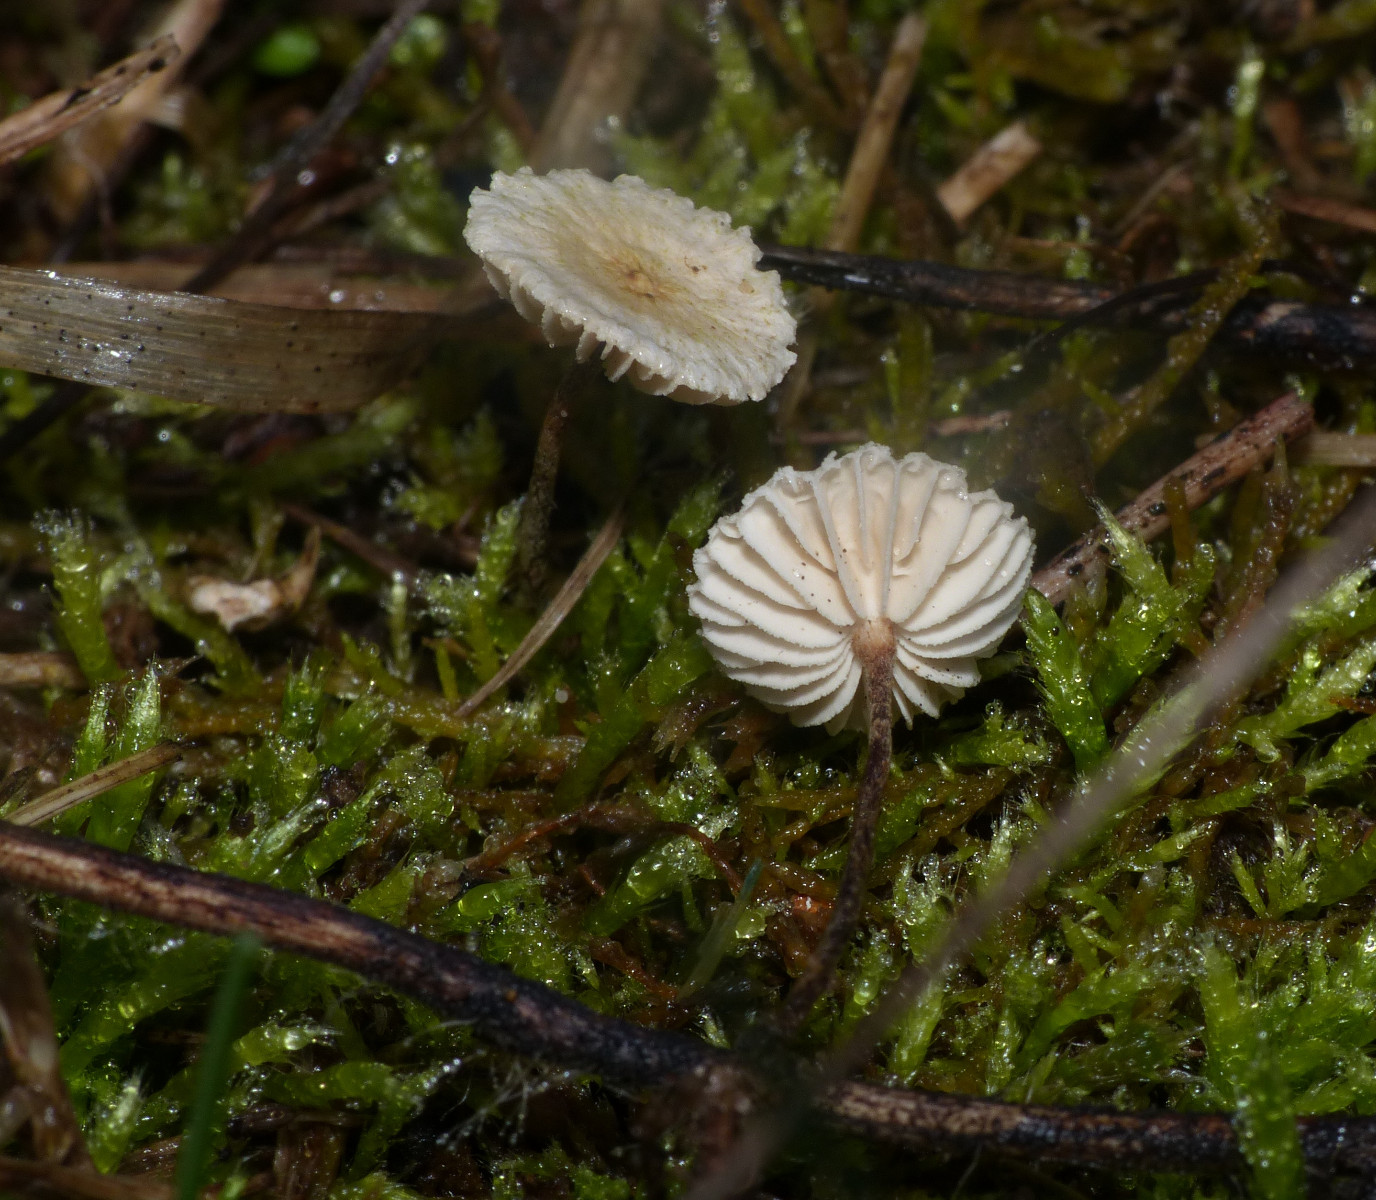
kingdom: Fungi
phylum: Basidiomycota
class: Agaricomycetes
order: Agaricales
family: Marasmiaceae
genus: Crinipellis
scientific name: Crinipellis scabella
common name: børstefod
